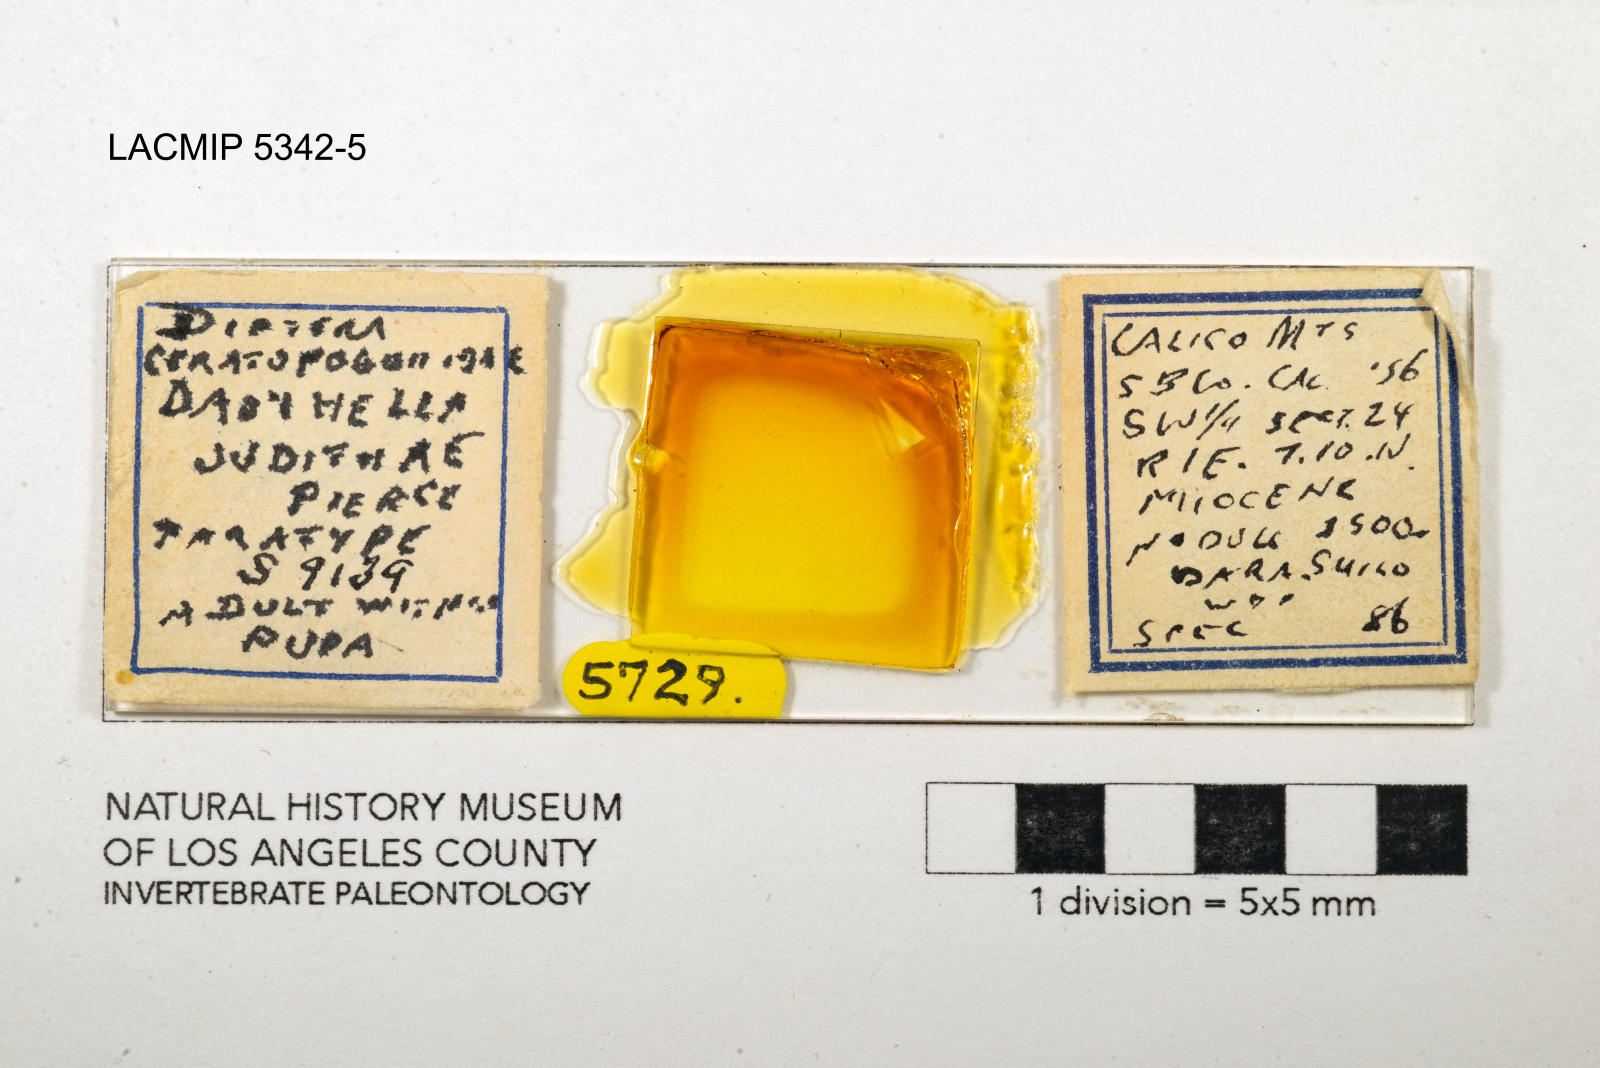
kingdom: Animalia
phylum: Arthropoda
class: Insecta
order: Diptera
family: Ceratopogonidae
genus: Dasyhelea
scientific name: Dasyhelea judithae
